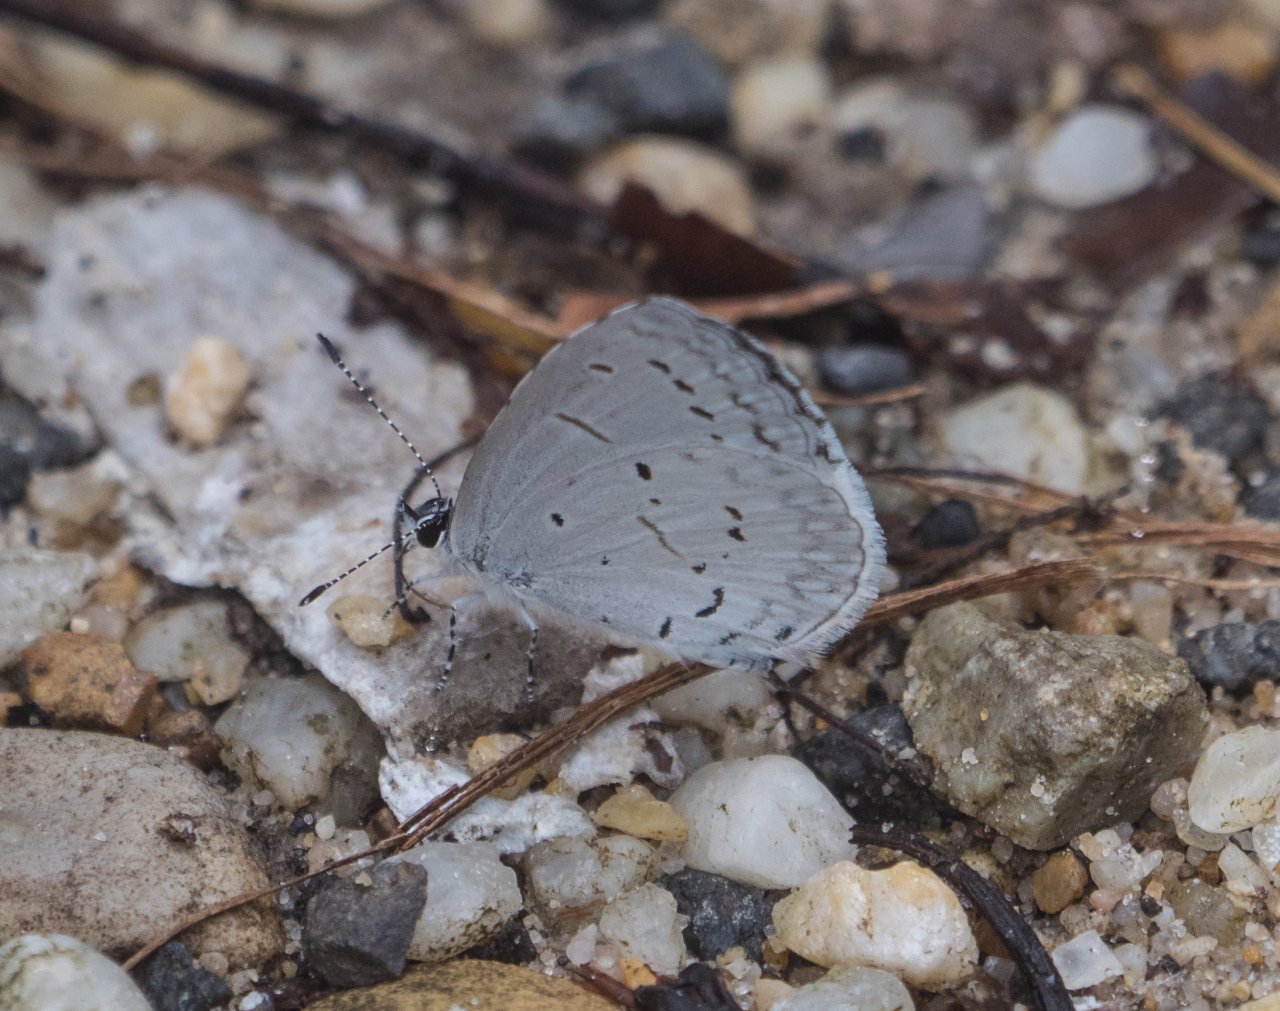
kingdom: Animalia
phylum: Arthropoda
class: Insecta
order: Lepidoptera
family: Lycaenidae
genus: Cyaniris
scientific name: Cyaniris neglecta
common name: Summer Azure
